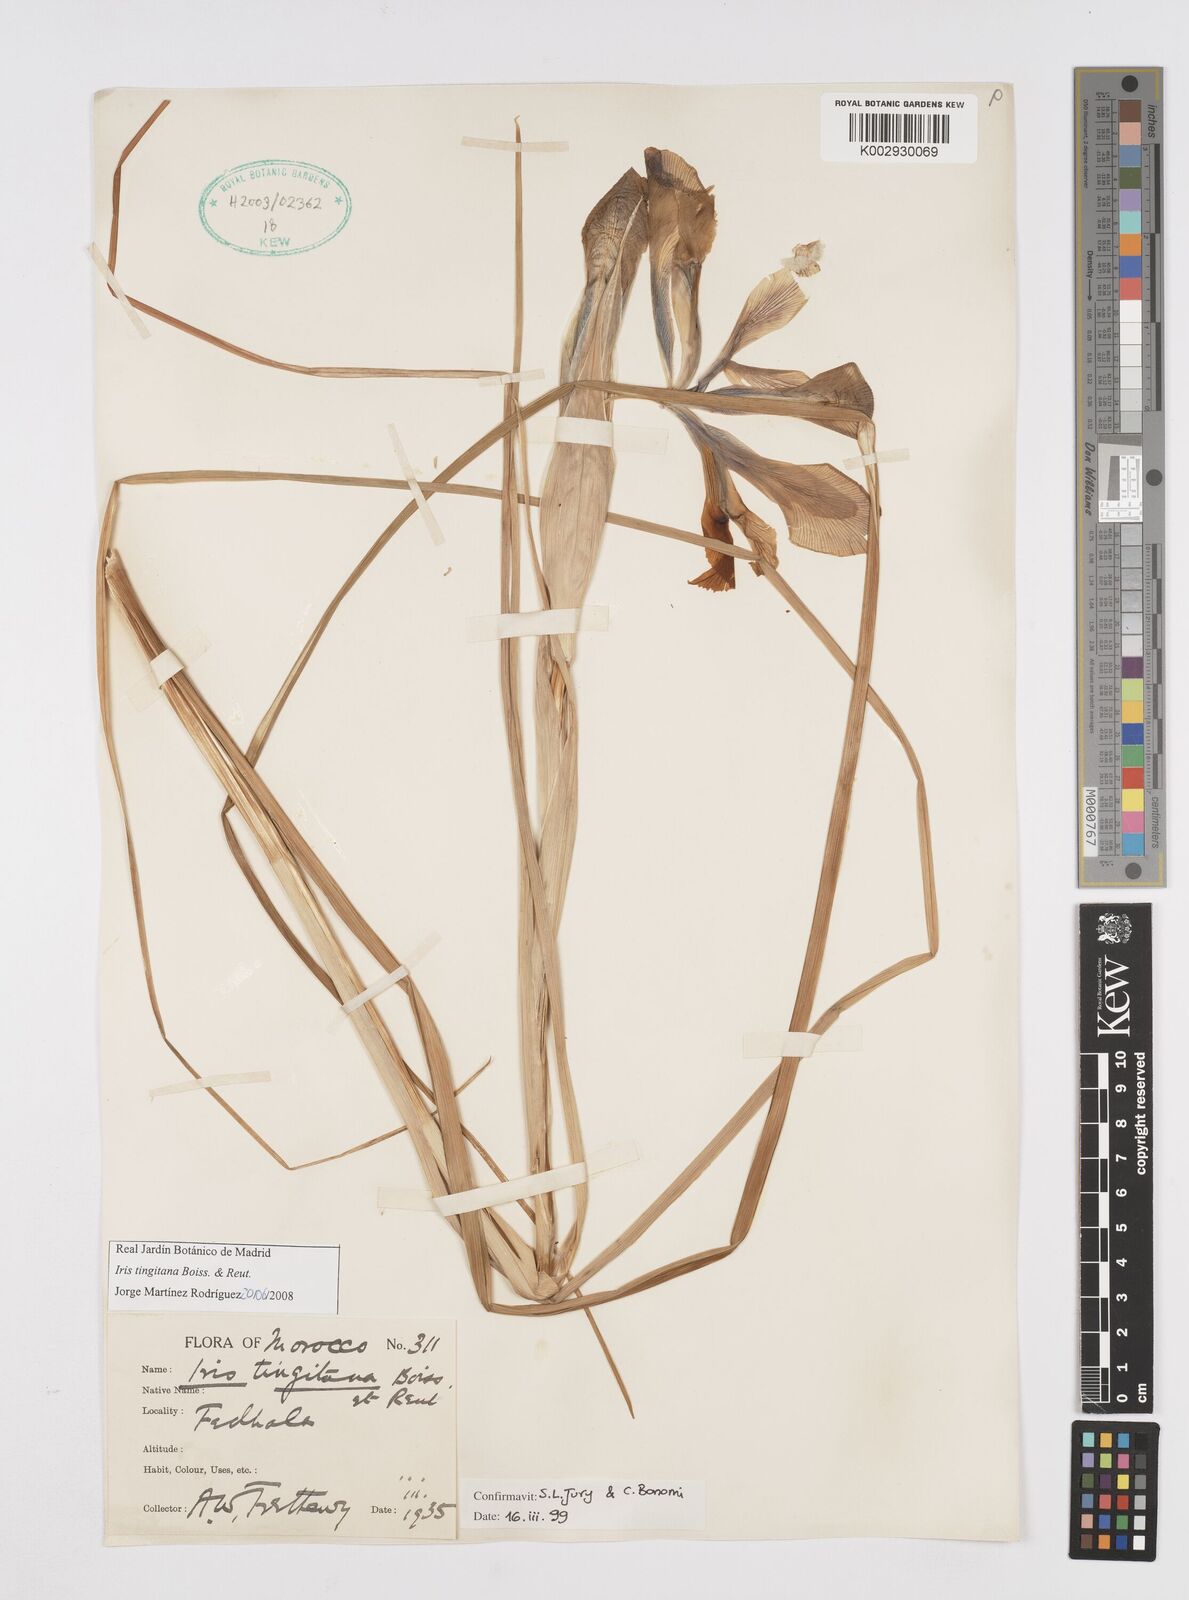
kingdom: Plantae
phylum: Tracheophyta
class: Liliopsida
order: Asparagales
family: Iridaceae
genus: Iris
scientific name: Iris tingitana
